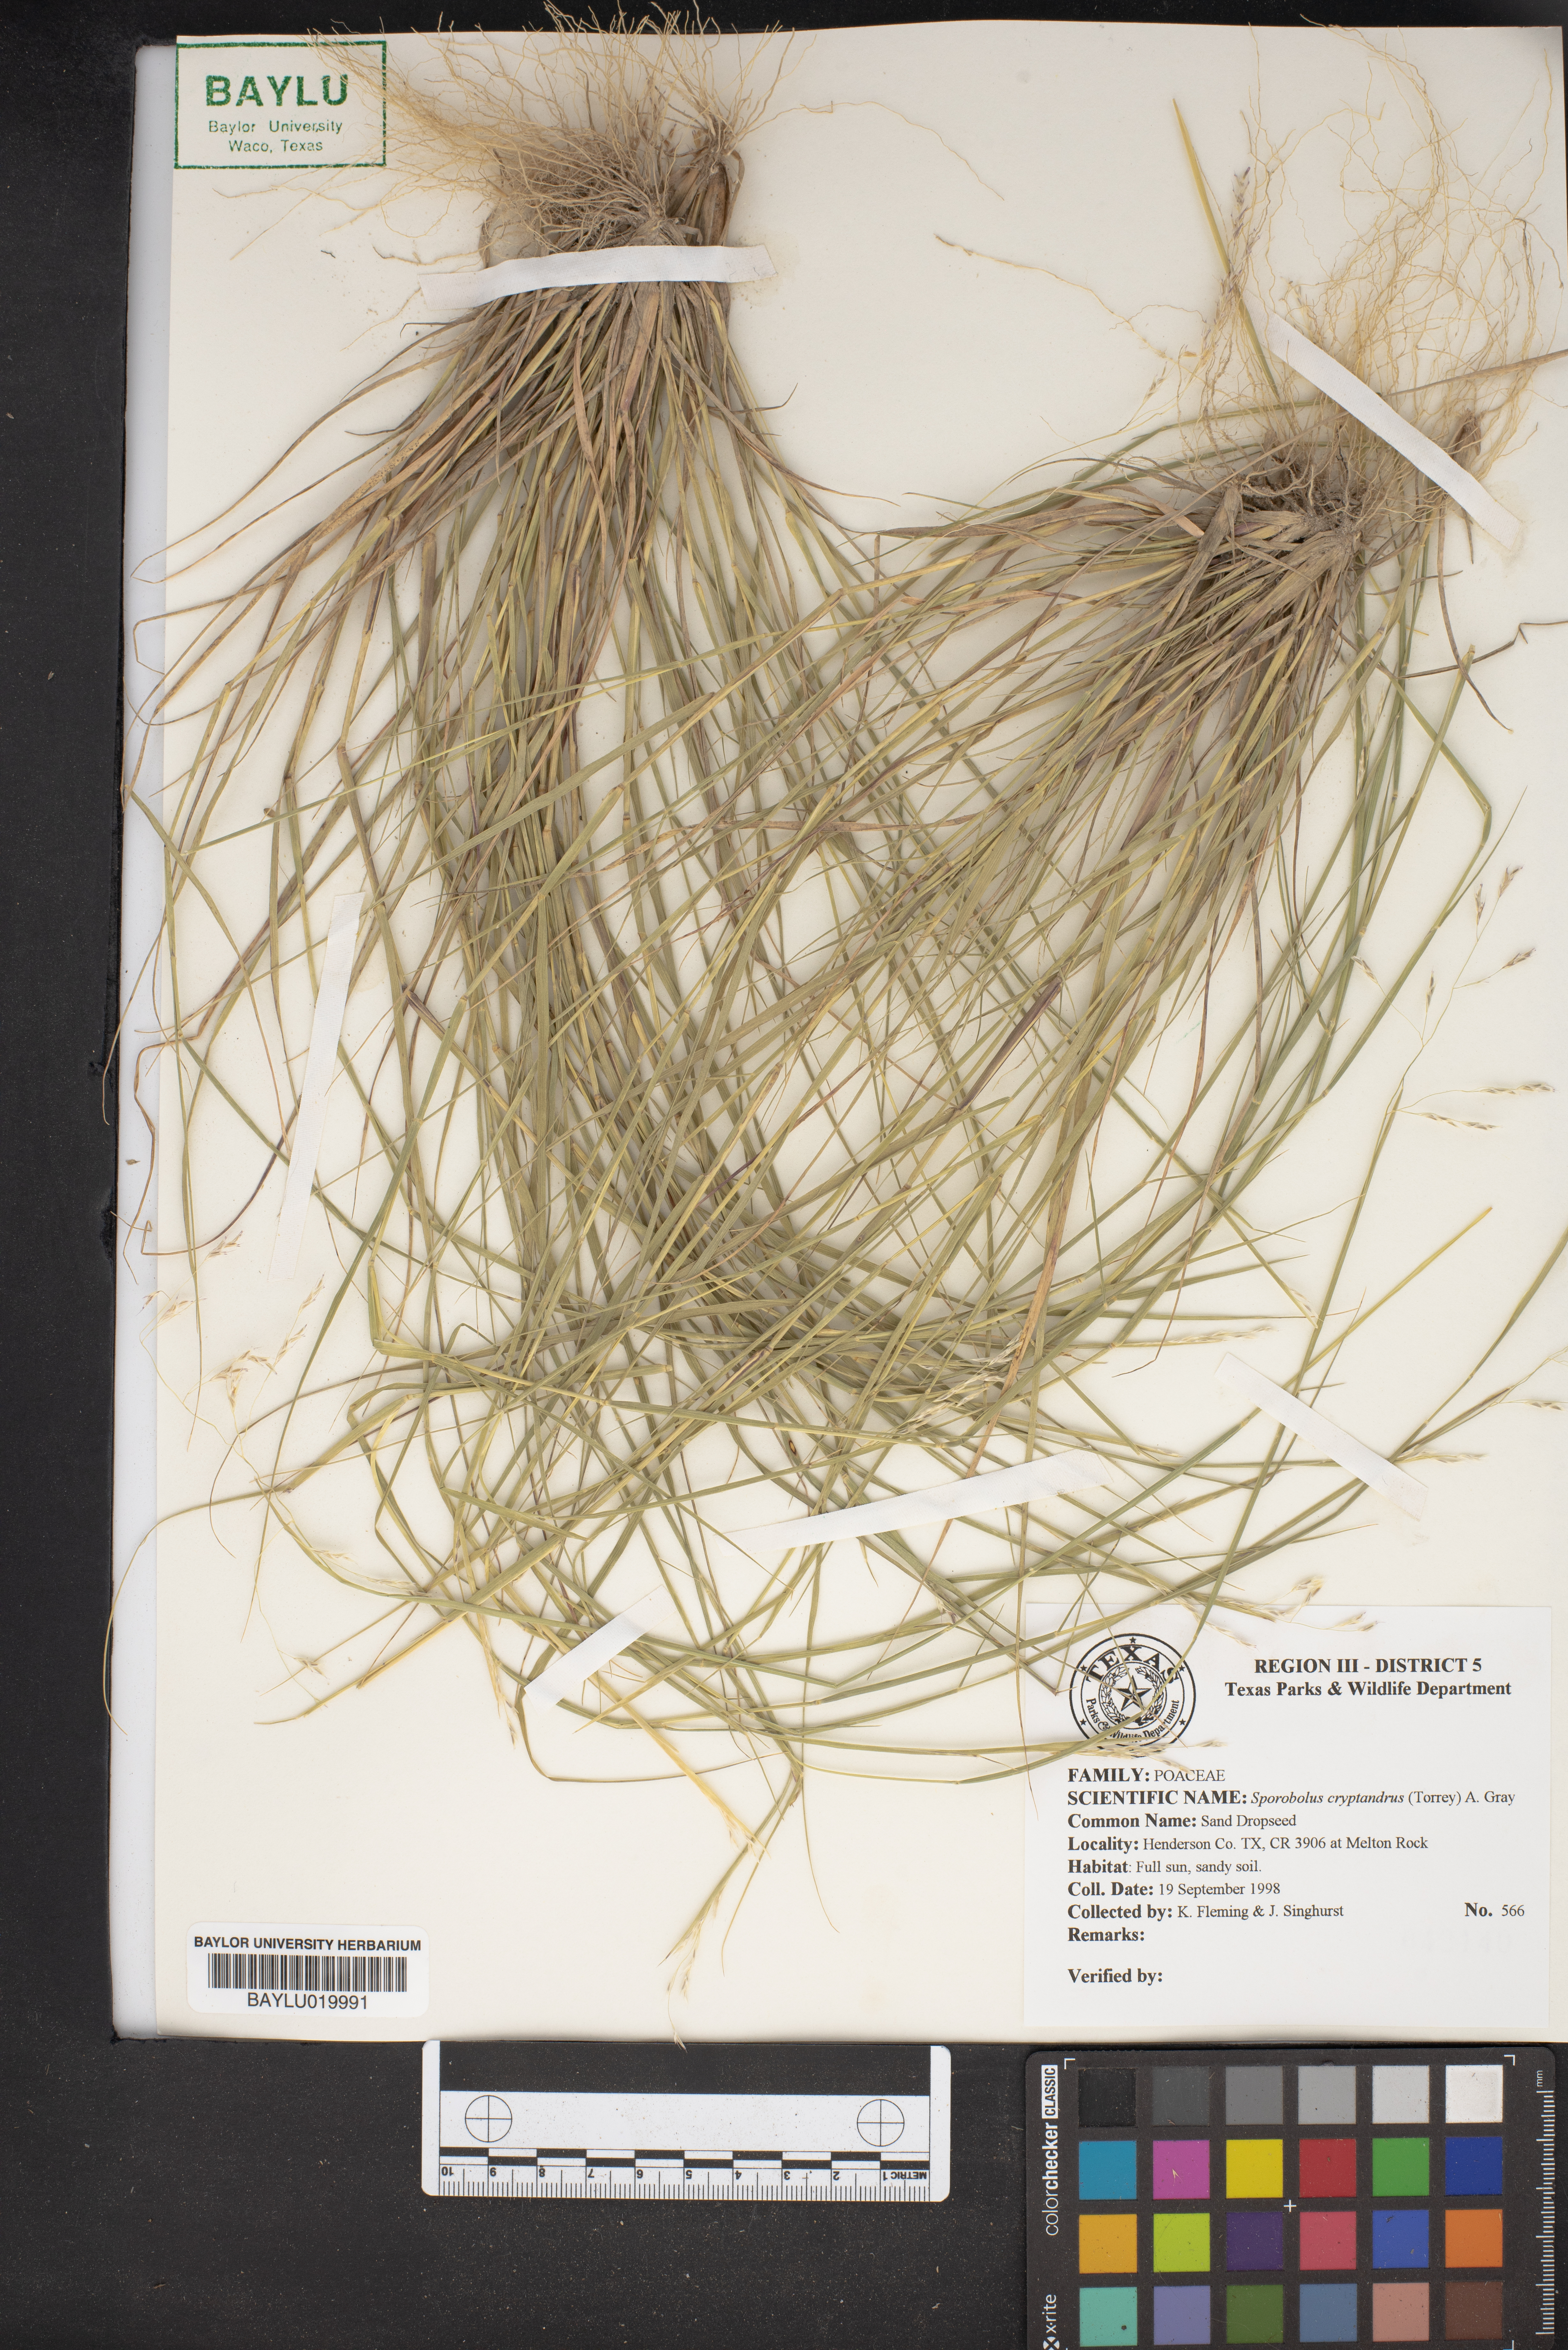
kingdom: Plantae
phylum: Tracheophyta
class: Liliopsida
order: Poales
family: Poaceae
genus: Sporobolus
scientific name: Sporobolus cryptandrus
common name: Sand dropseed
